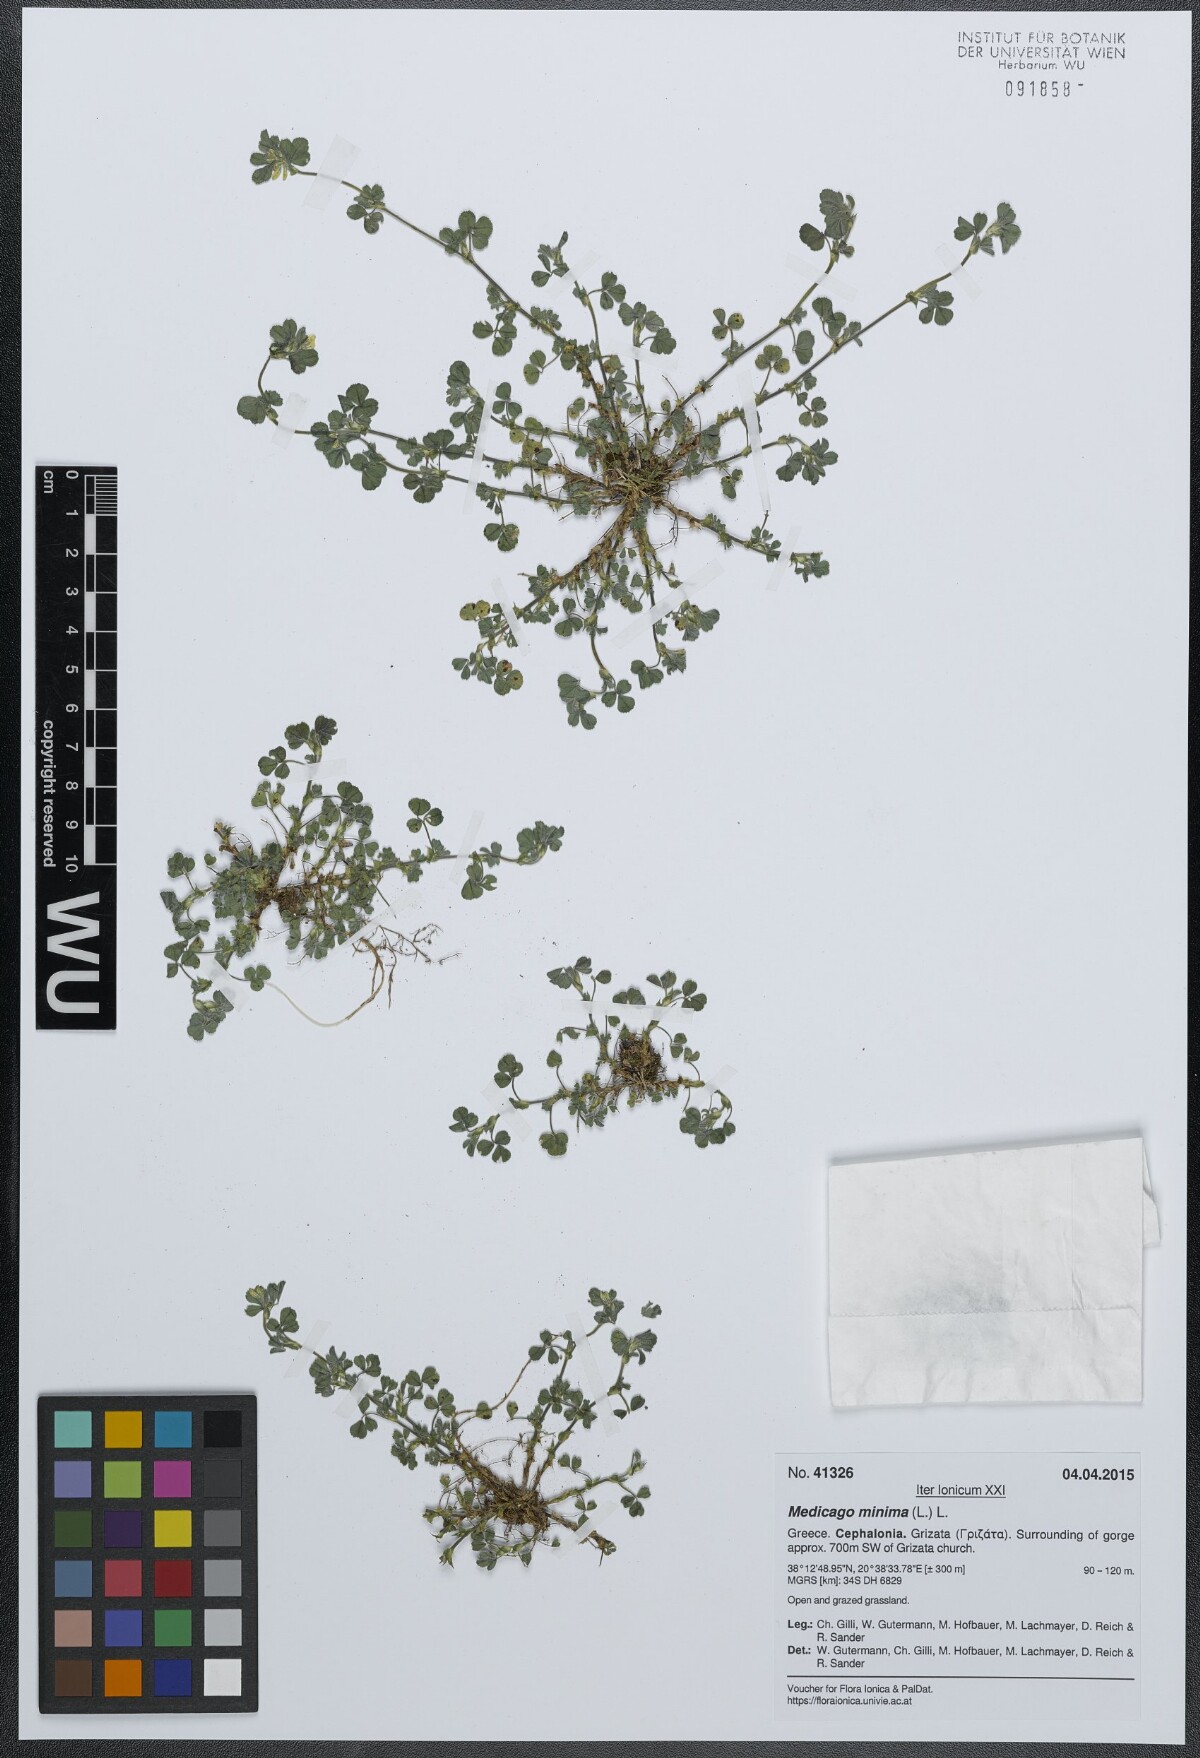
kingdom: Plantae
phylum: Tracheophyta
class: Magnoliopsida
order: Fabales
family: Fabaceae
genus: Medicago
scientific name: Medicago minima
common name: Little bur-clover
